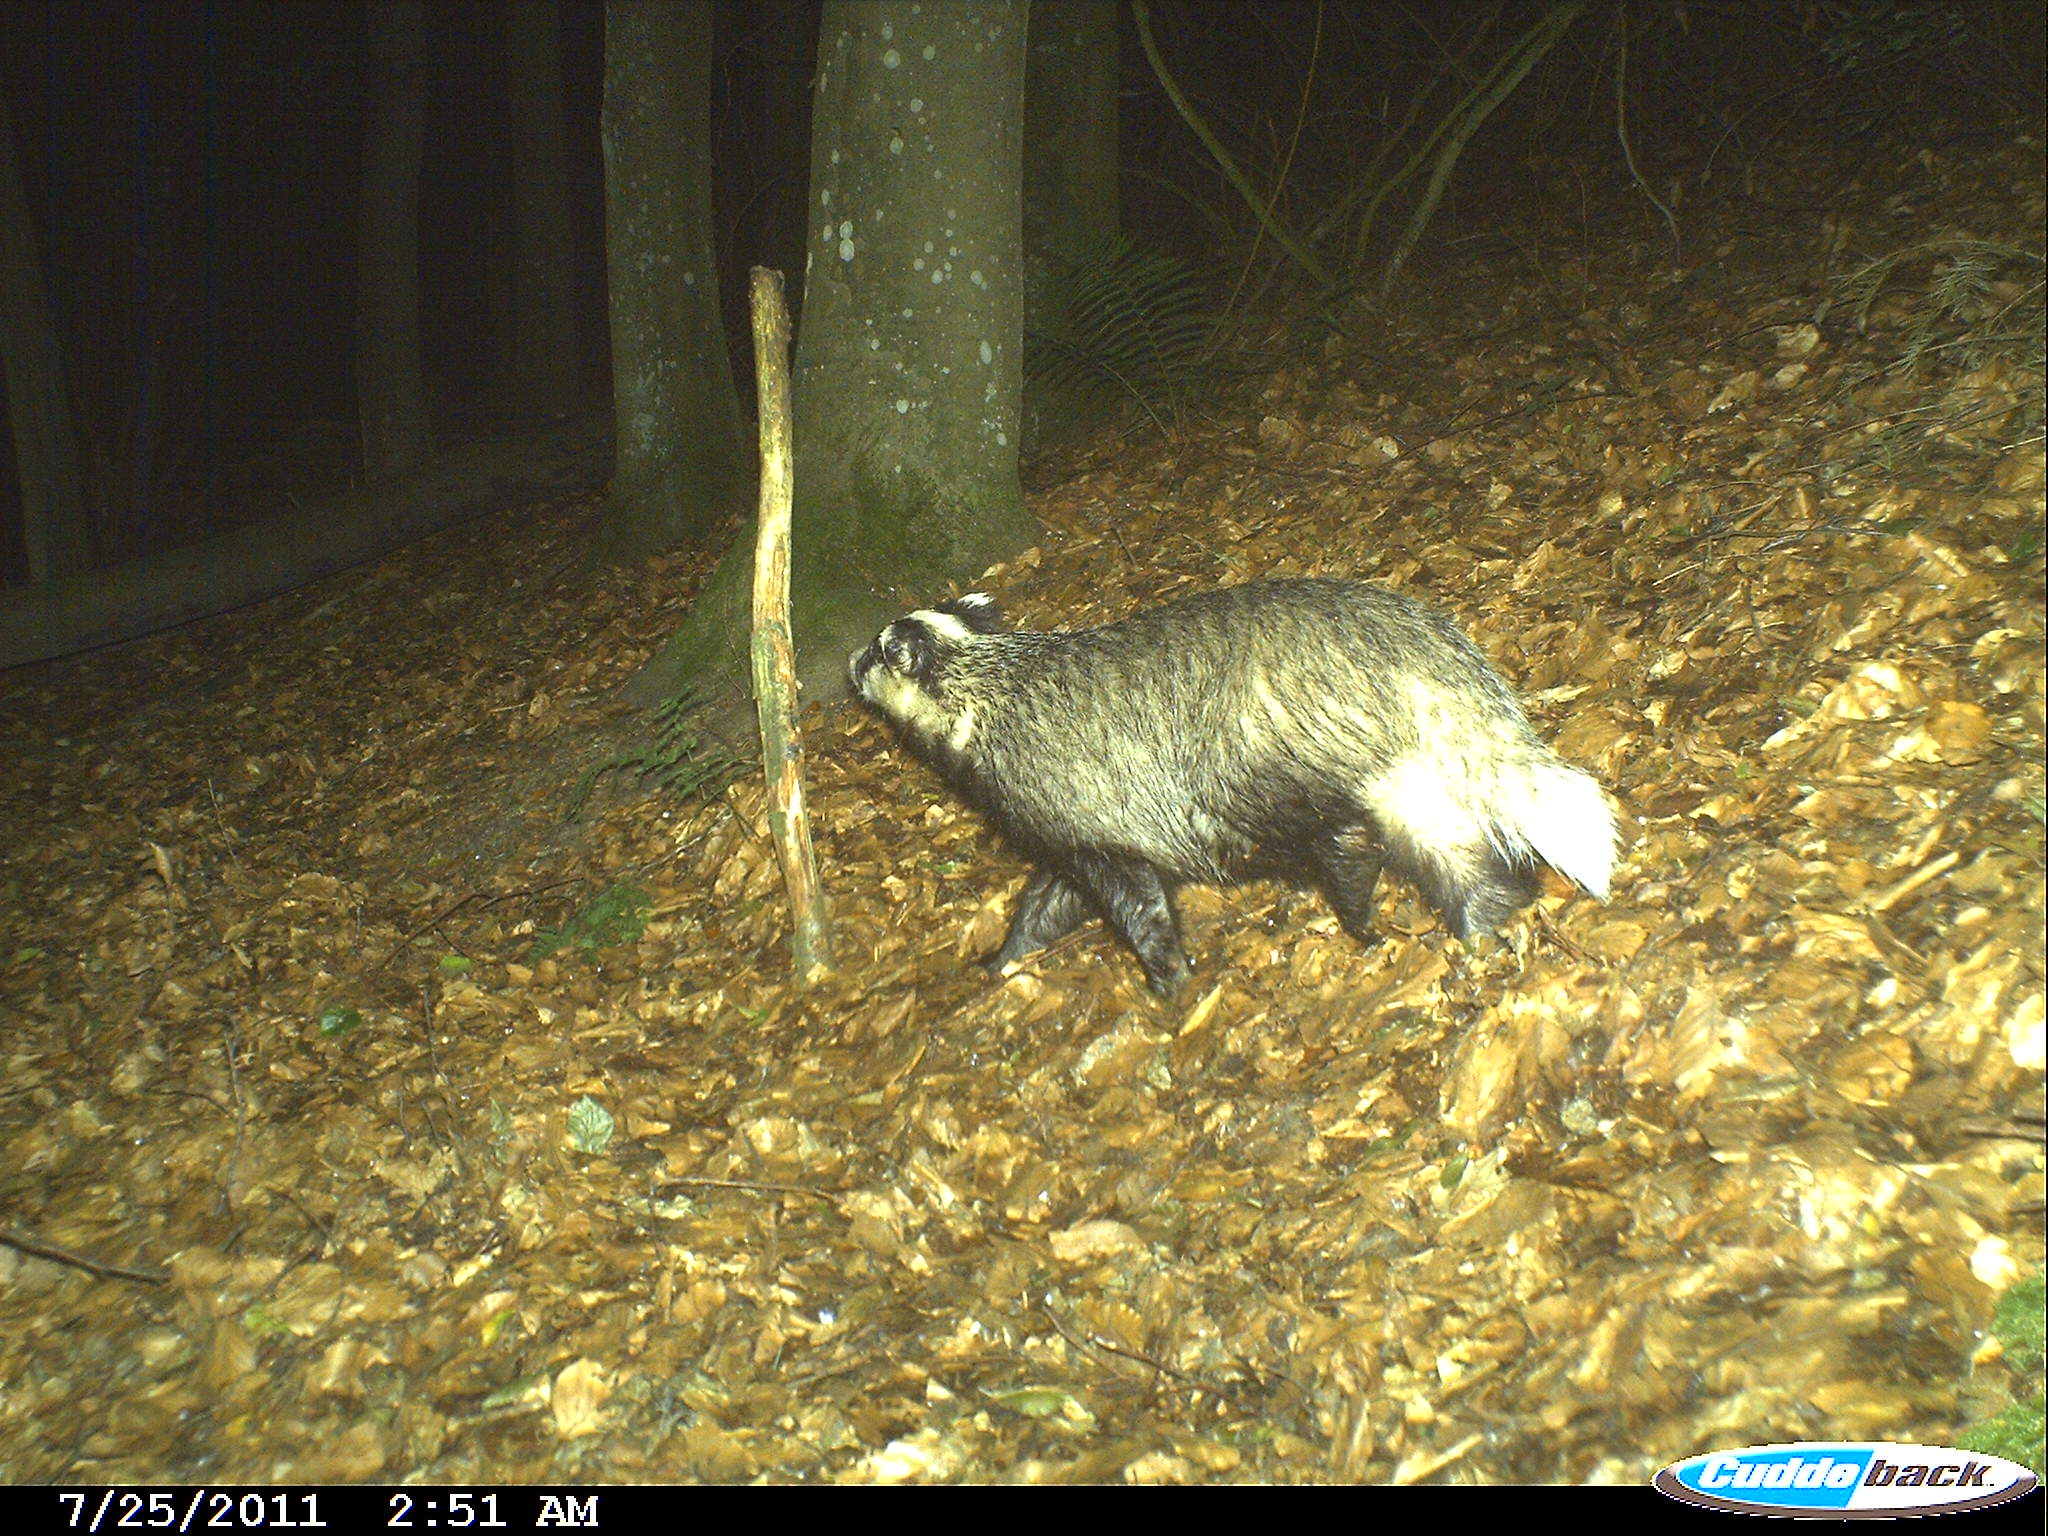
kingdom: Animalia
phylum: Chordata
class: Mammalia
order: Carnivora
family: Mustelidae
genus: Meles
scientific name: Meles meles
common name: Eurasian badger
